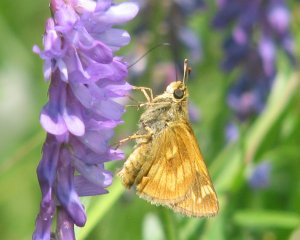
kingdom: Animalia
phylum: Arthropoda
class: Insecta
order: Lepidoptera
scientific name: Lepidoptera
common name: Butterflies
